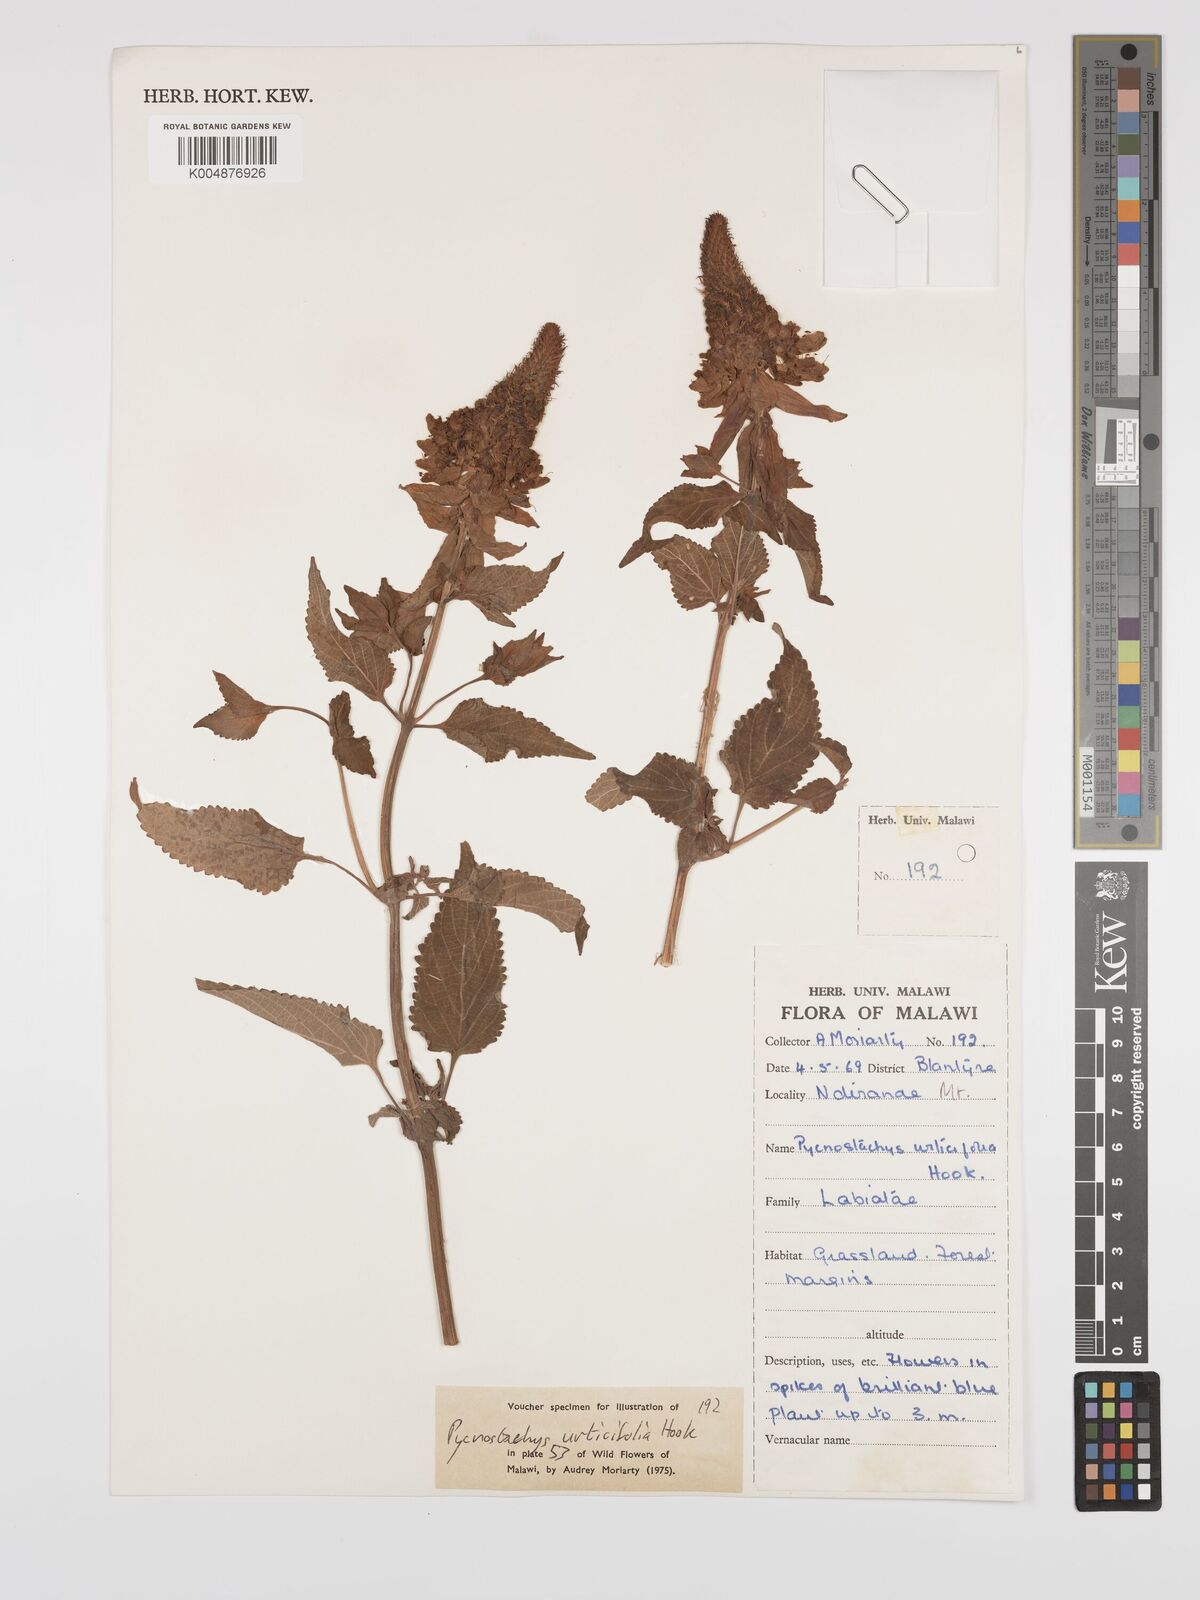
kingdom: Plantae
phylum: Tracheophyta
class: Magnoliopsida
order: Lamiales
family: Lamiaceae
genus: Coleus
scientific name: Coleus livingstonei
